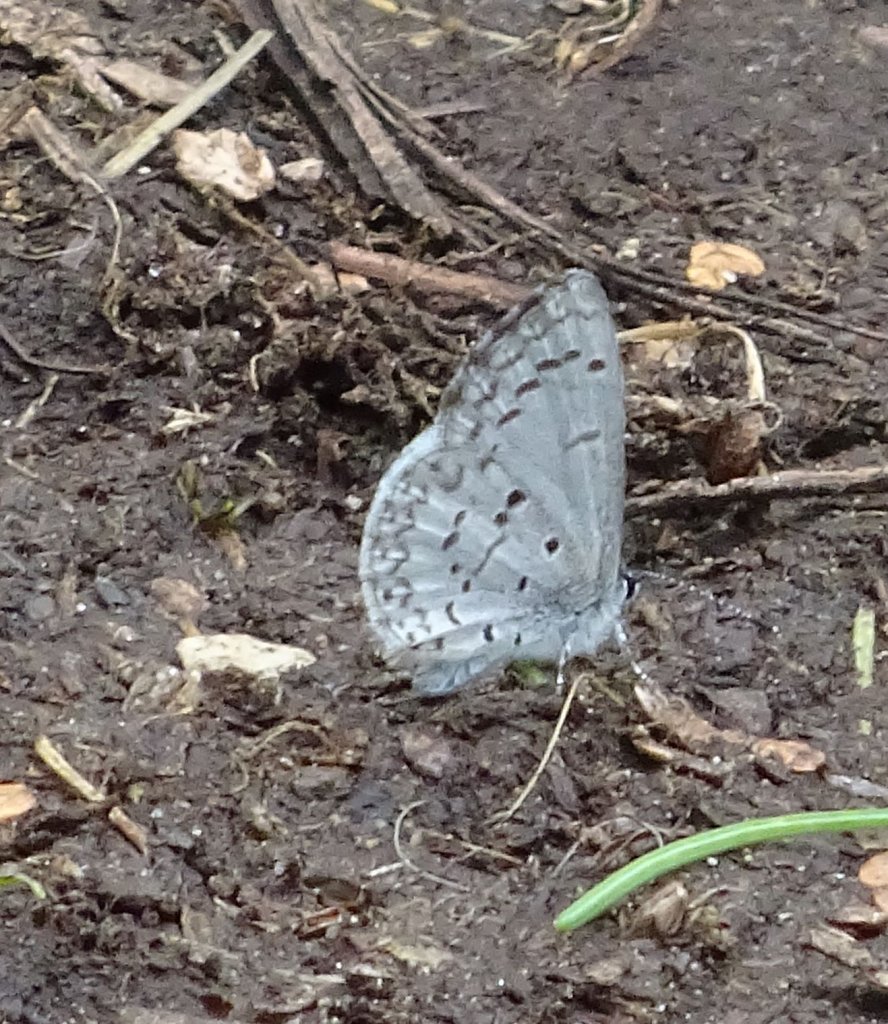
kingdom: Animalia
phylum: Arthropoda
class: Insecta
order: Lepidoptera
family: Lycaenidae
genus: Celastrina
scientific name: Celastrina lucia
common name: Northern Spring Azure
